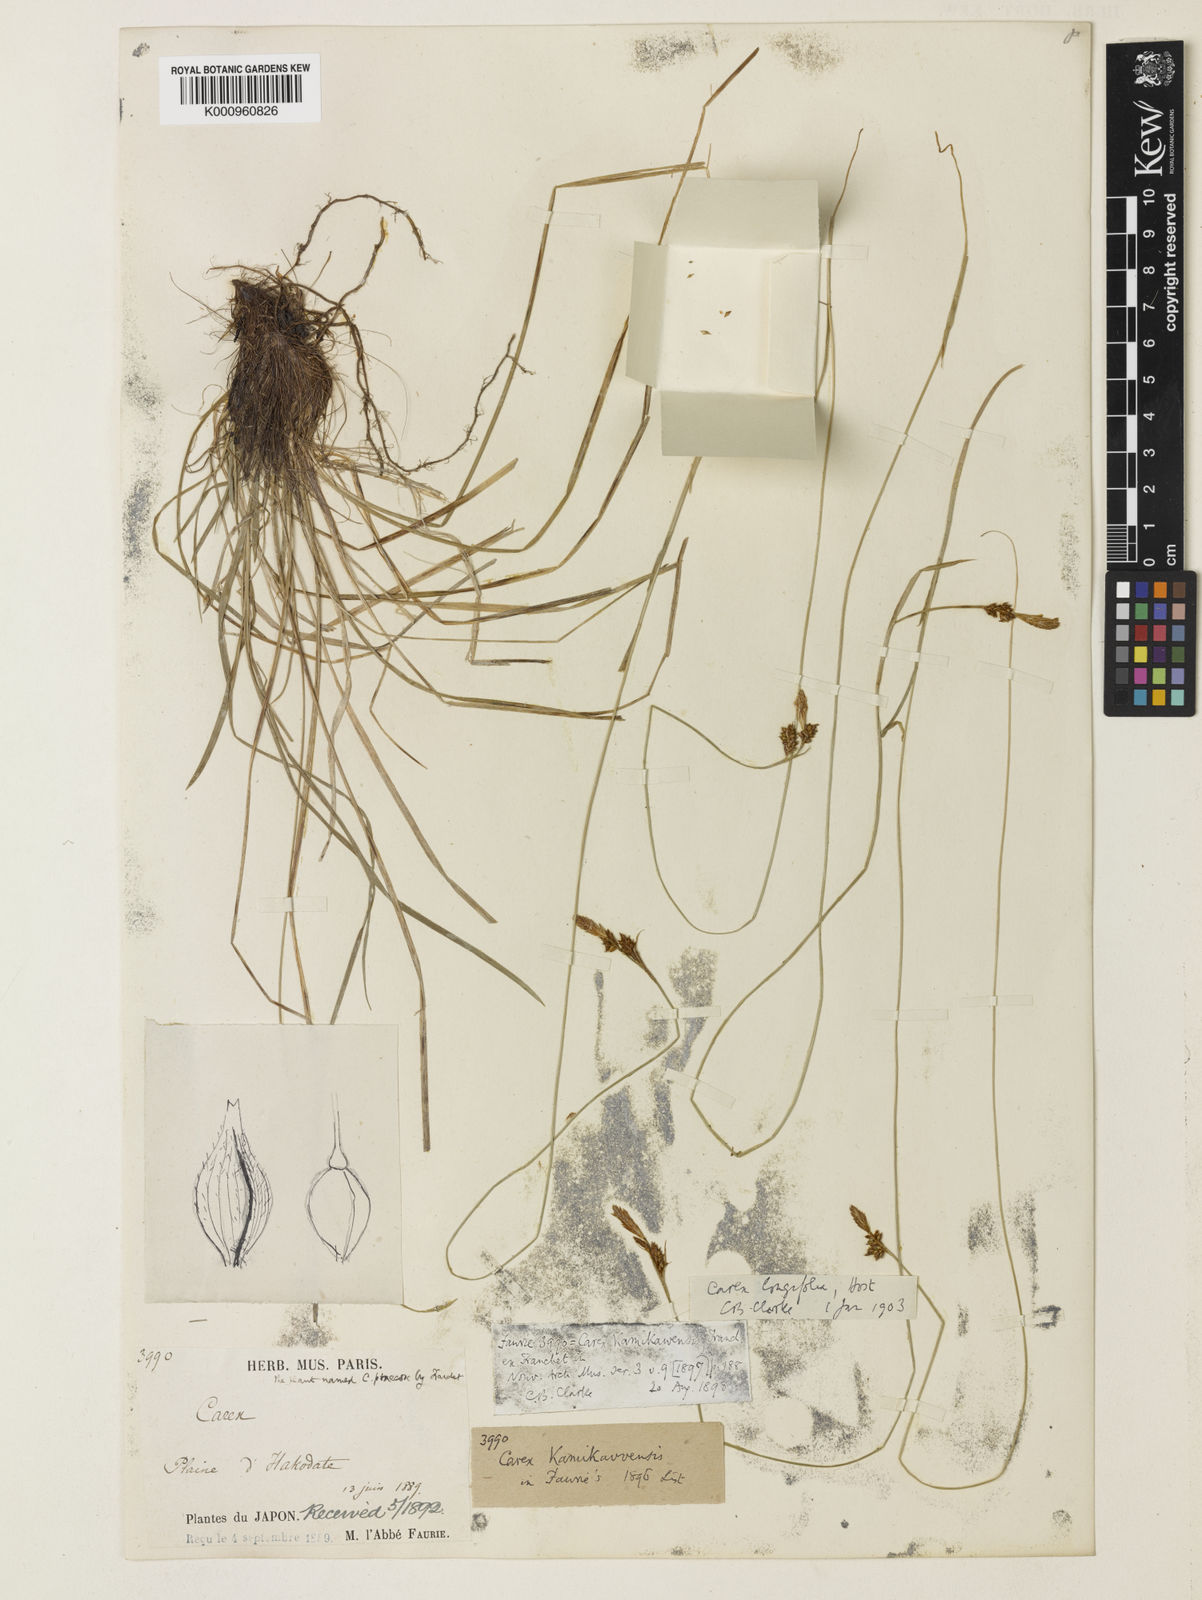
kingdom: Plantae
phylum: Tracheophyta
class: Liliopsida
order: Poales
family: Cyperaceae
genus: Carex
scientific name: Carex umbrosa
